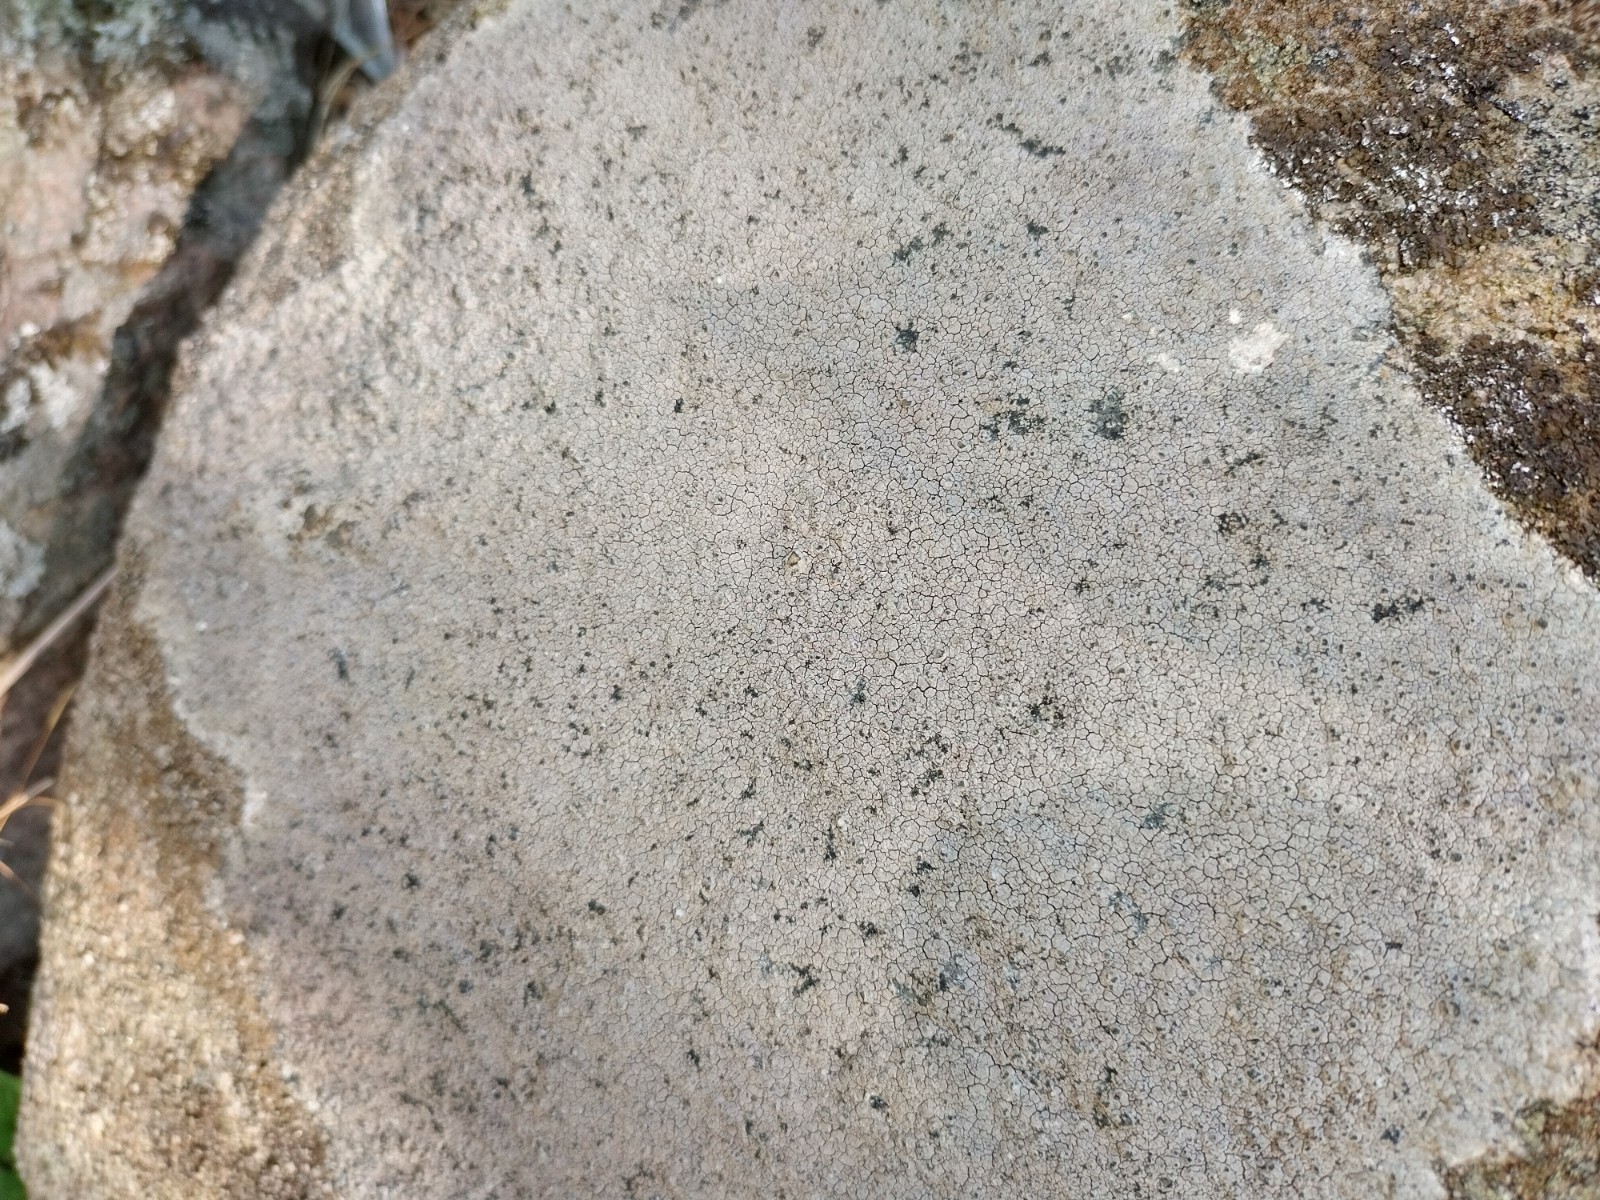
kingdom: Fungi
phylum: Ascomycota
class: Lecanoromycetes
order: Lecanorales
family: Lecanoraceae
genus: Glaucomaria
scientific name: Glaucomaria rupicola
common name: stengærde-kantskivelav
